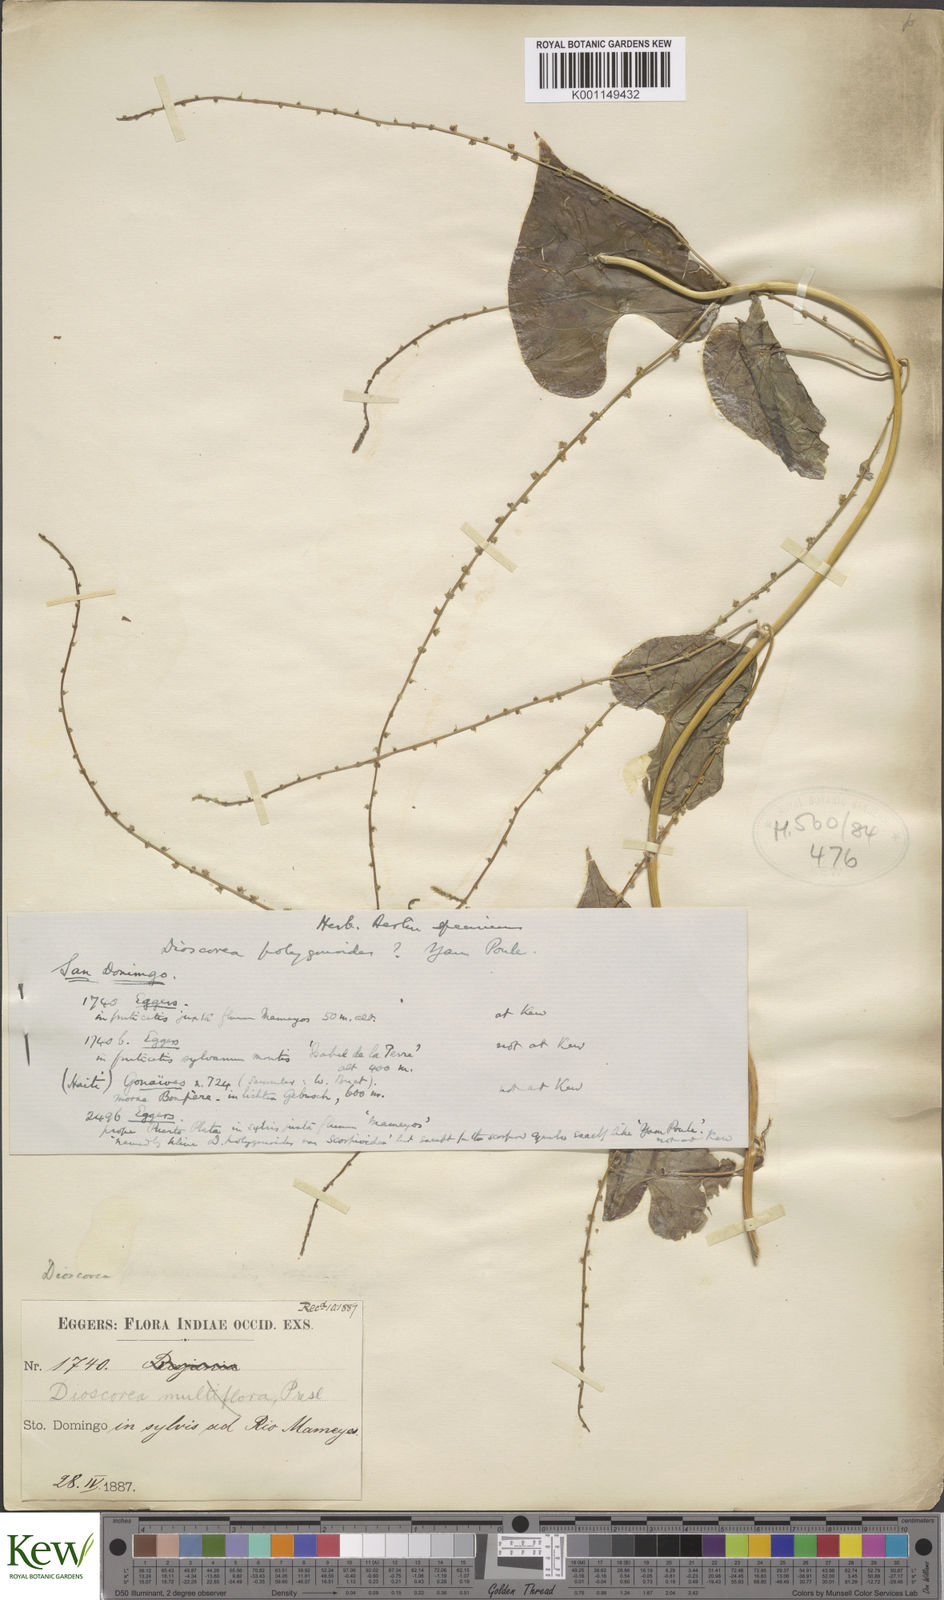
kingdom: Plantae
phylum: Tracheophyta
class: Liliopsida
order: Dioscoreales
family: Dioscoreaceae
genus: Dioscorea
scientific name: Dioscorea
